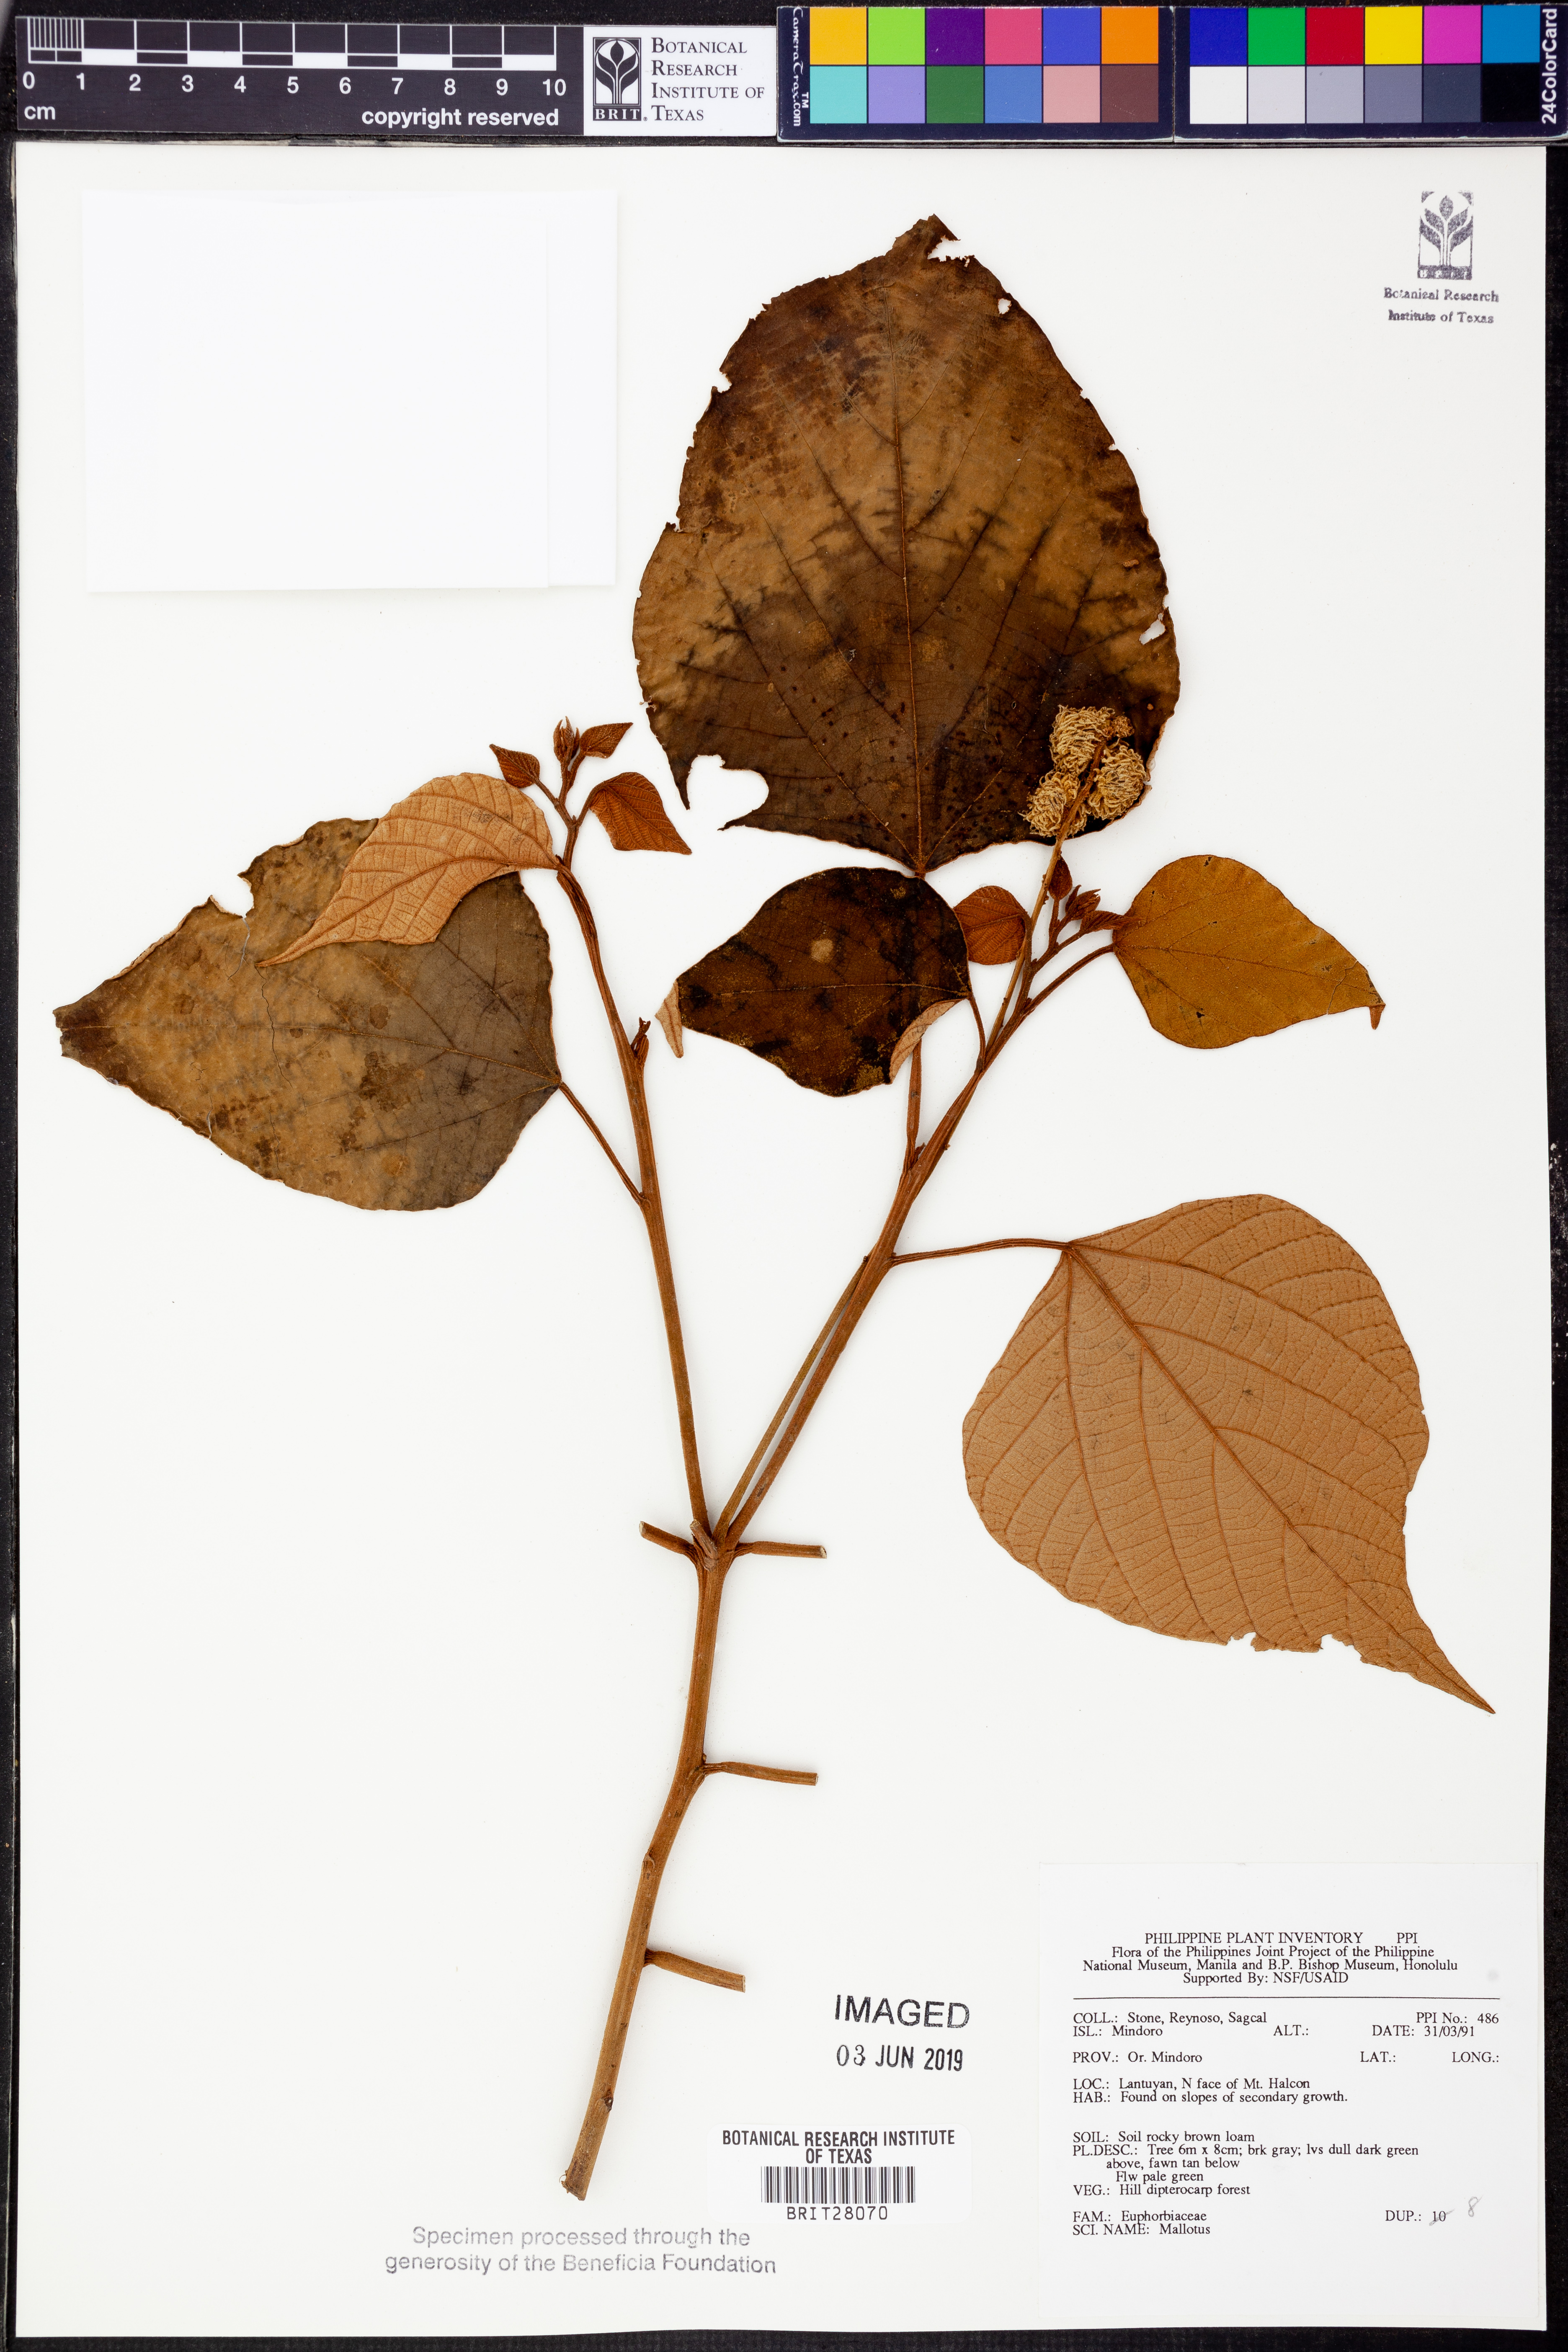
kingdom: Plantae
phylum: Tracheophyta
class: Magnoliopsida
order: Malpighiales
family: Euphorbiaceae
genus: Mallotus
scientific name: Mallotus
